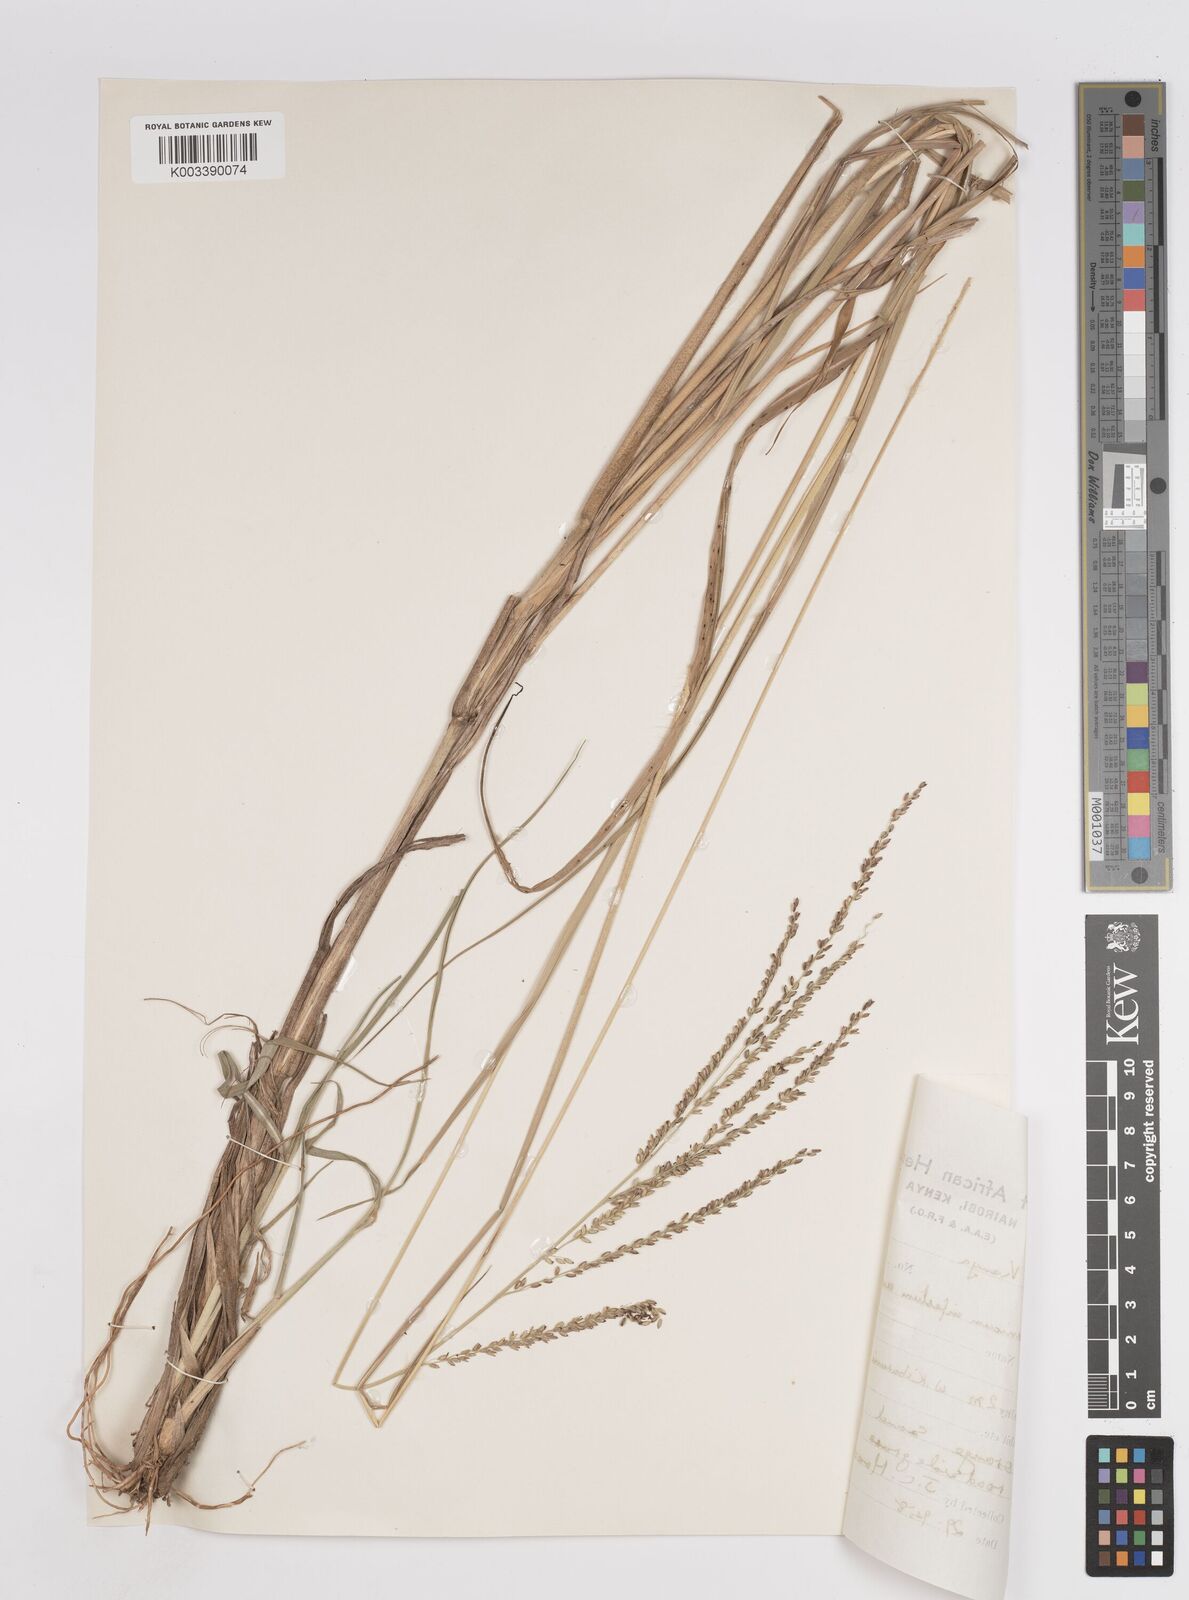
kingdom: Plantae
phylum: Tracheophyta
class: Liliopsida
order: Poales
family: Poaceae
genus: Megathyrsus
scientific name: Megathyrsus infestus
